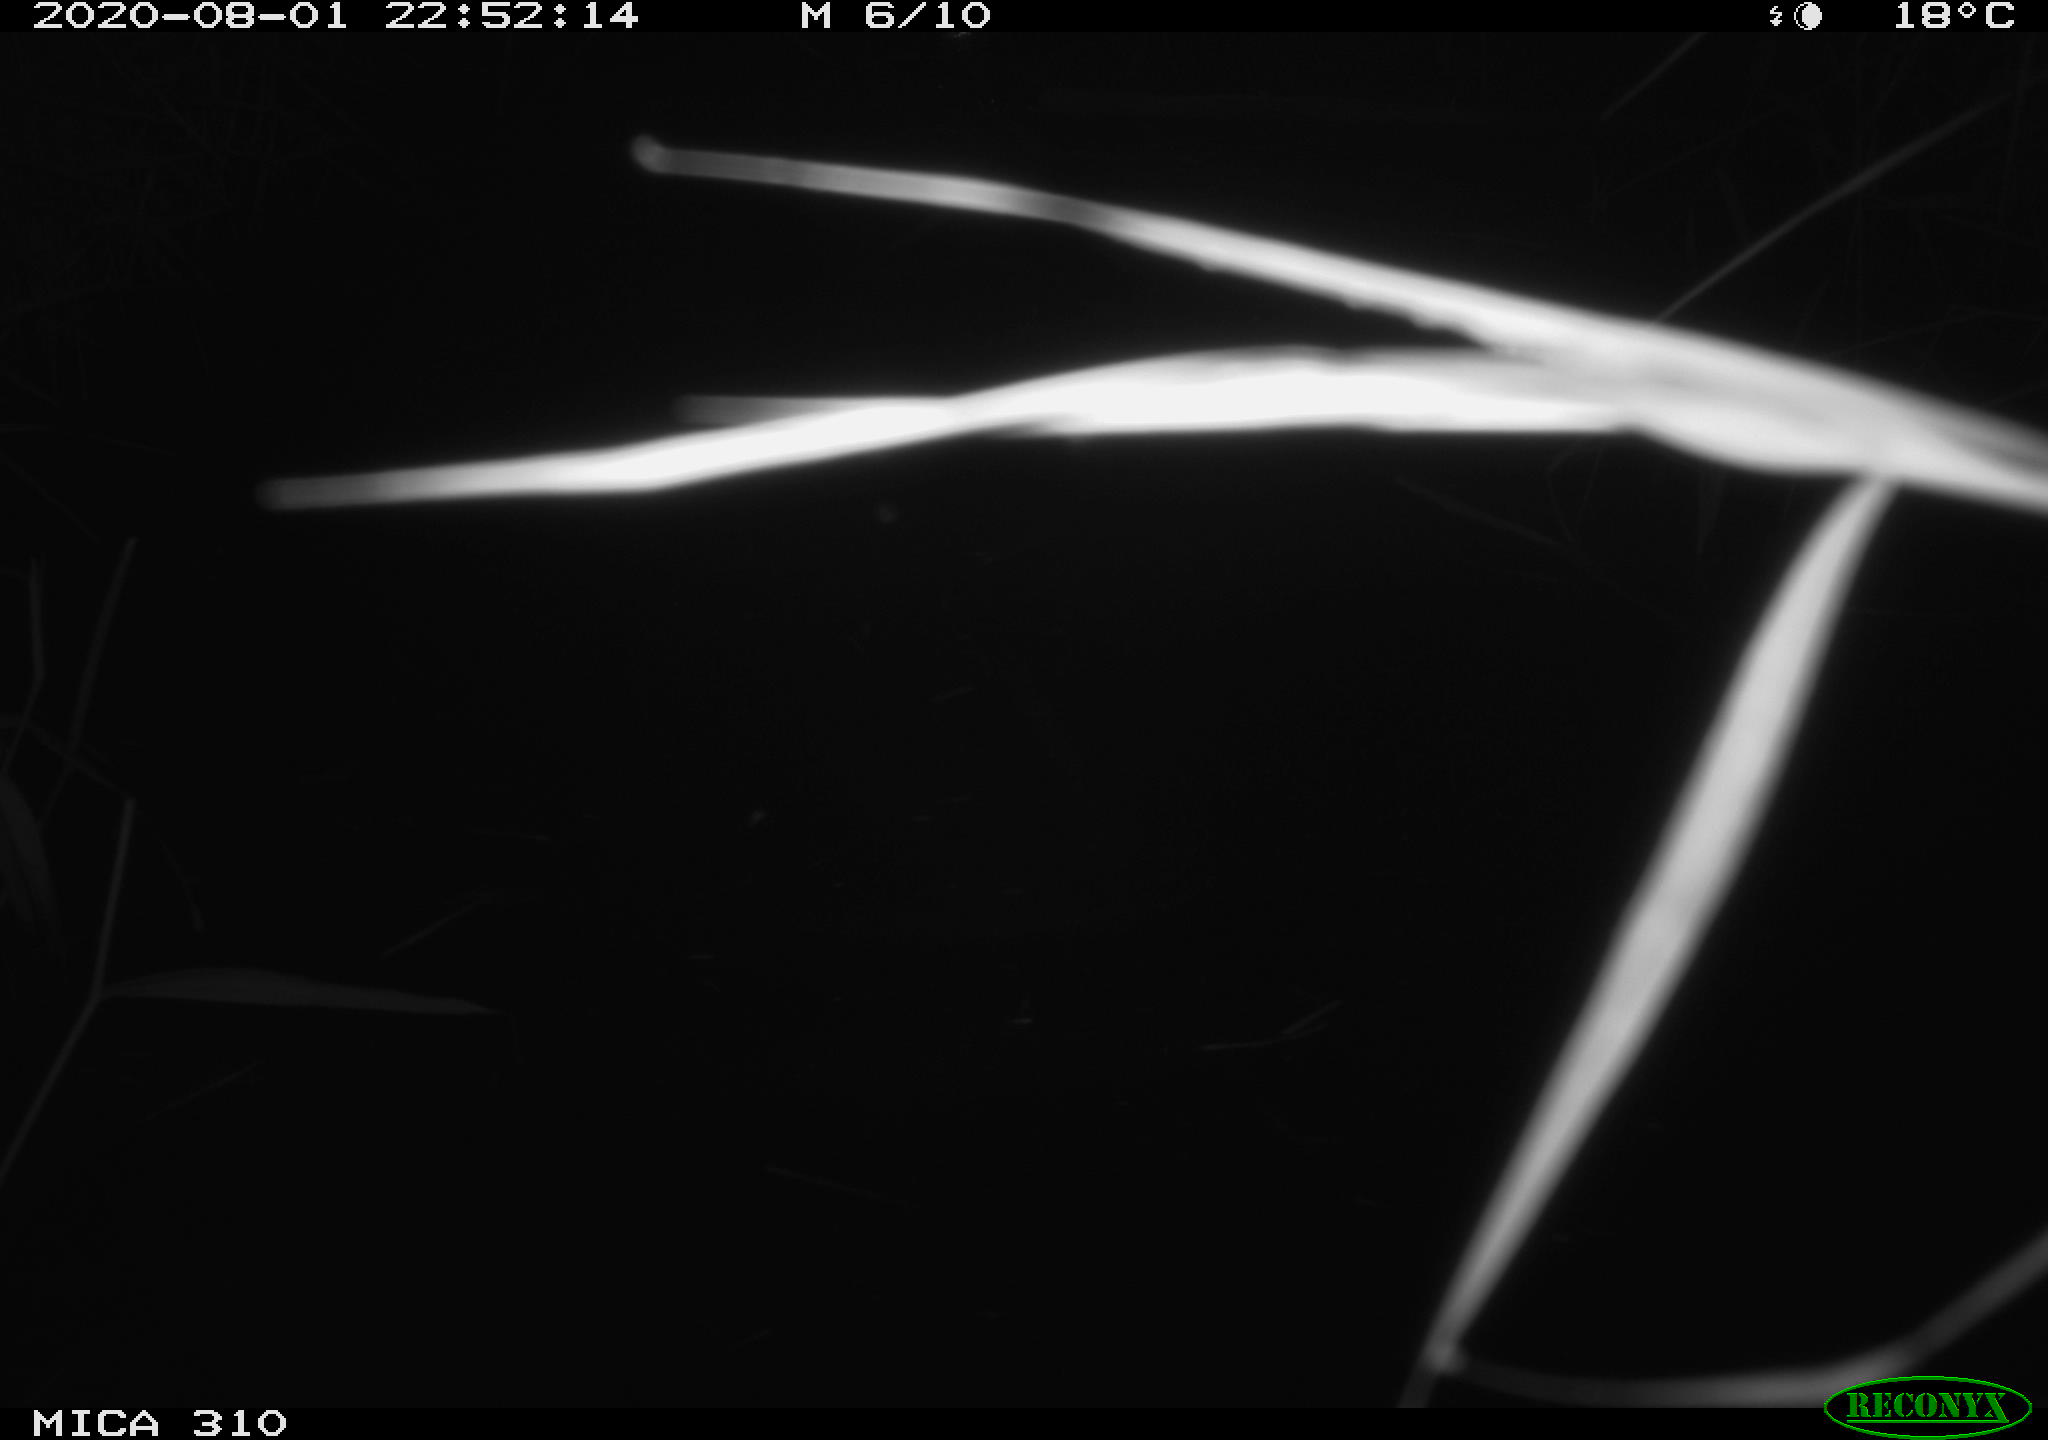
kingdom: Animalia
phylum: Chordata
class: Mammalia
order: Rodentia
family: Muridae
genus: Rattus
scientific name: Rattus norvegicus
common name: Brown rat
